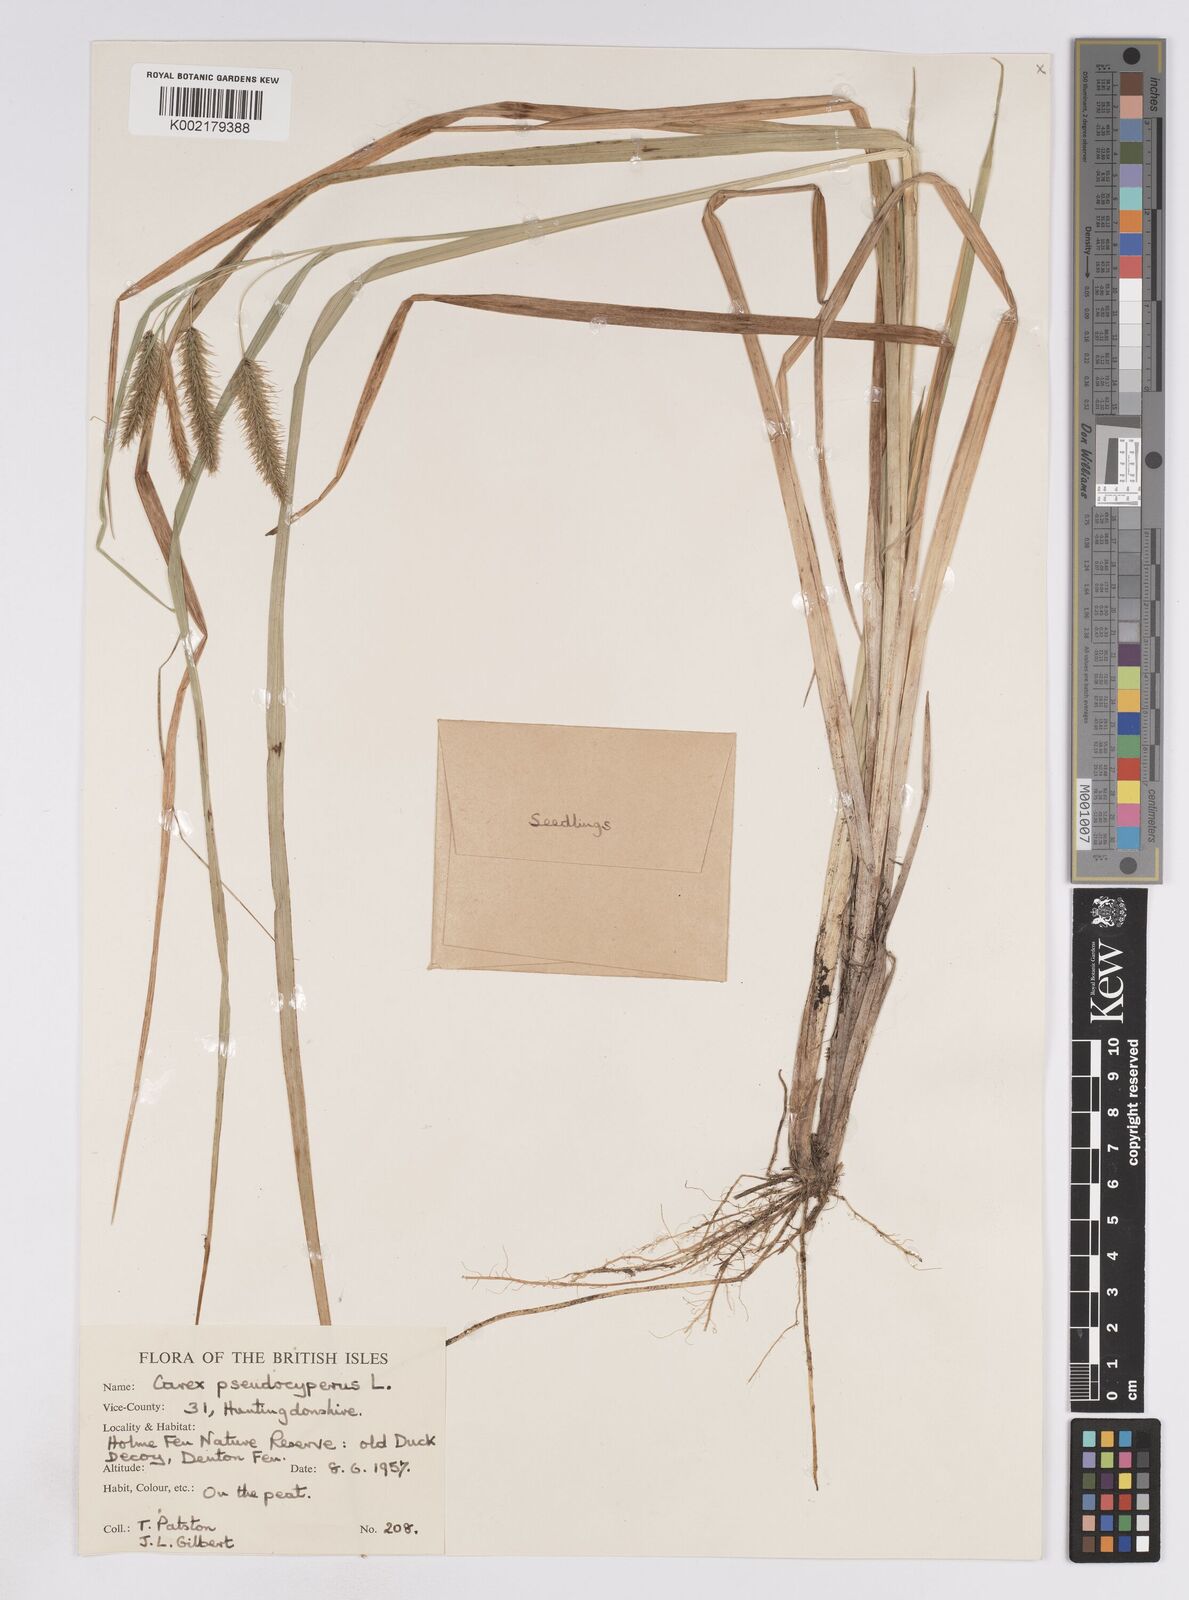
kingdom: Plantae
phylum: Tracheophyta
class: Liliopsida
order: Poales
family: Cyperaceae
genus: Carex
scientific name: Carex pseudocyperus
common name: Cyperus sedge
